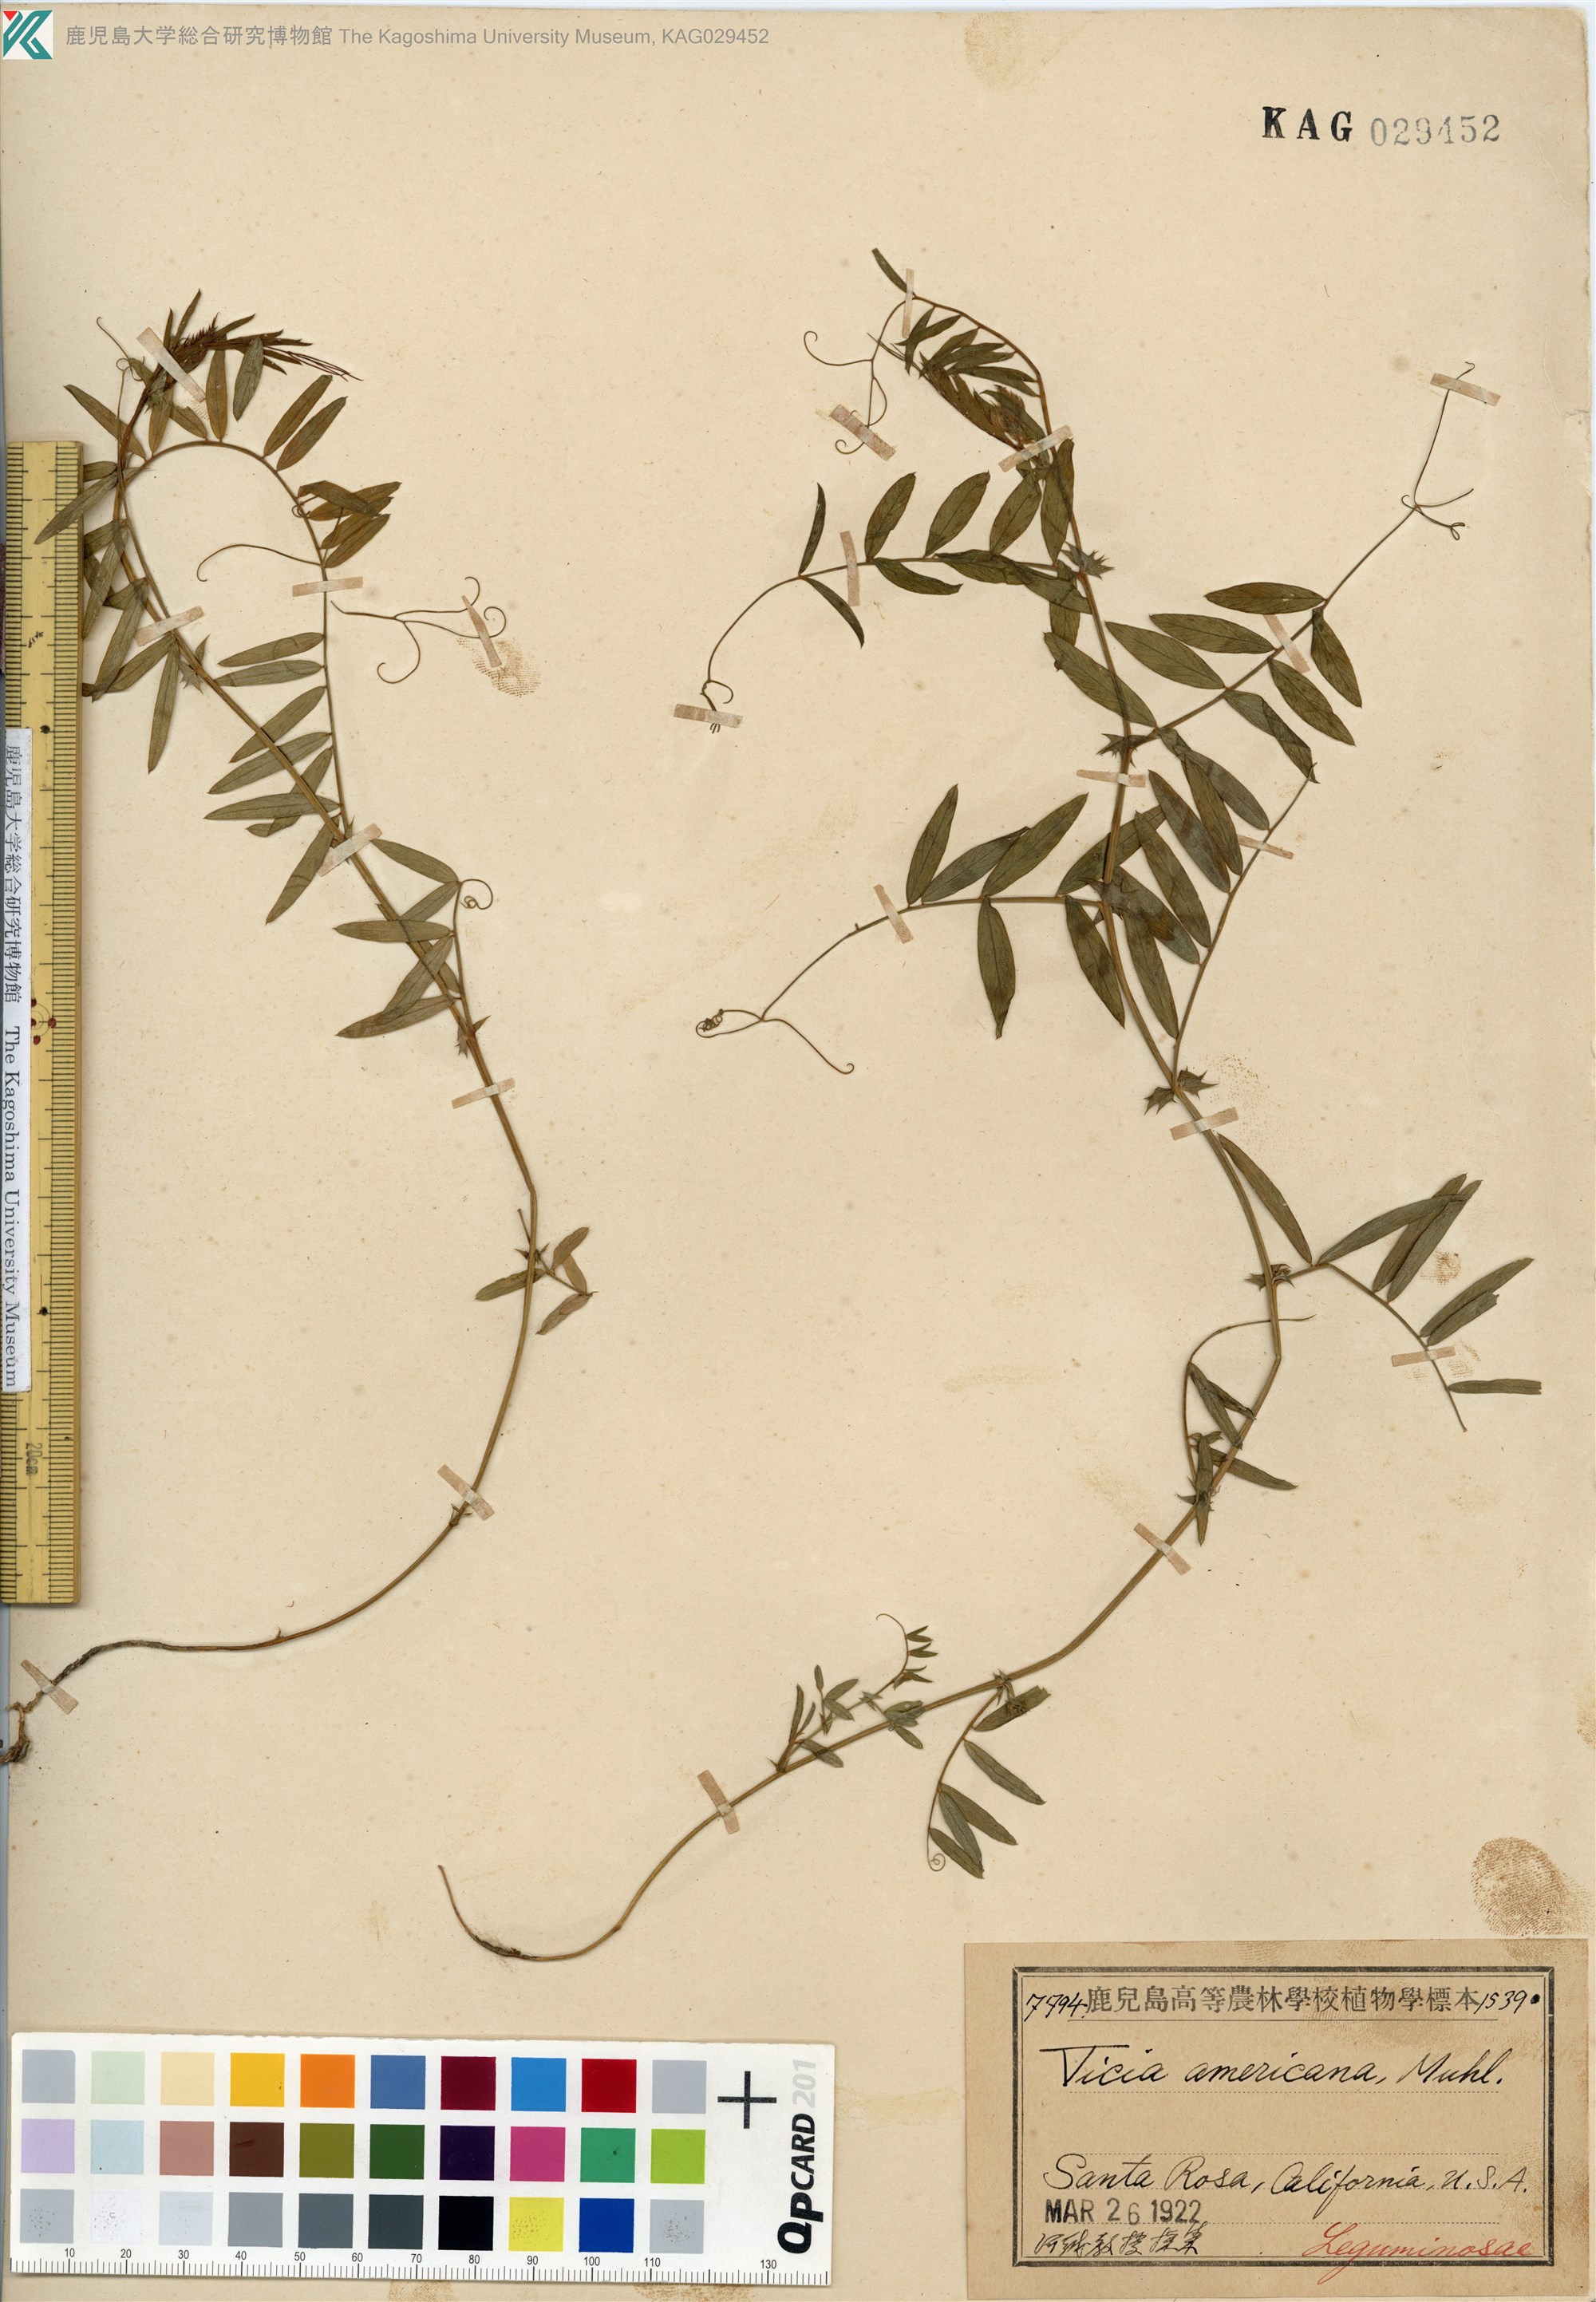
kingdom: Plantae
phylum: Tracheophyta
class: Magnoliopsida
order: Fabales
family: Fabaceae
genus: Vicia
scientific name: Vicia americana
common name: American vetch
